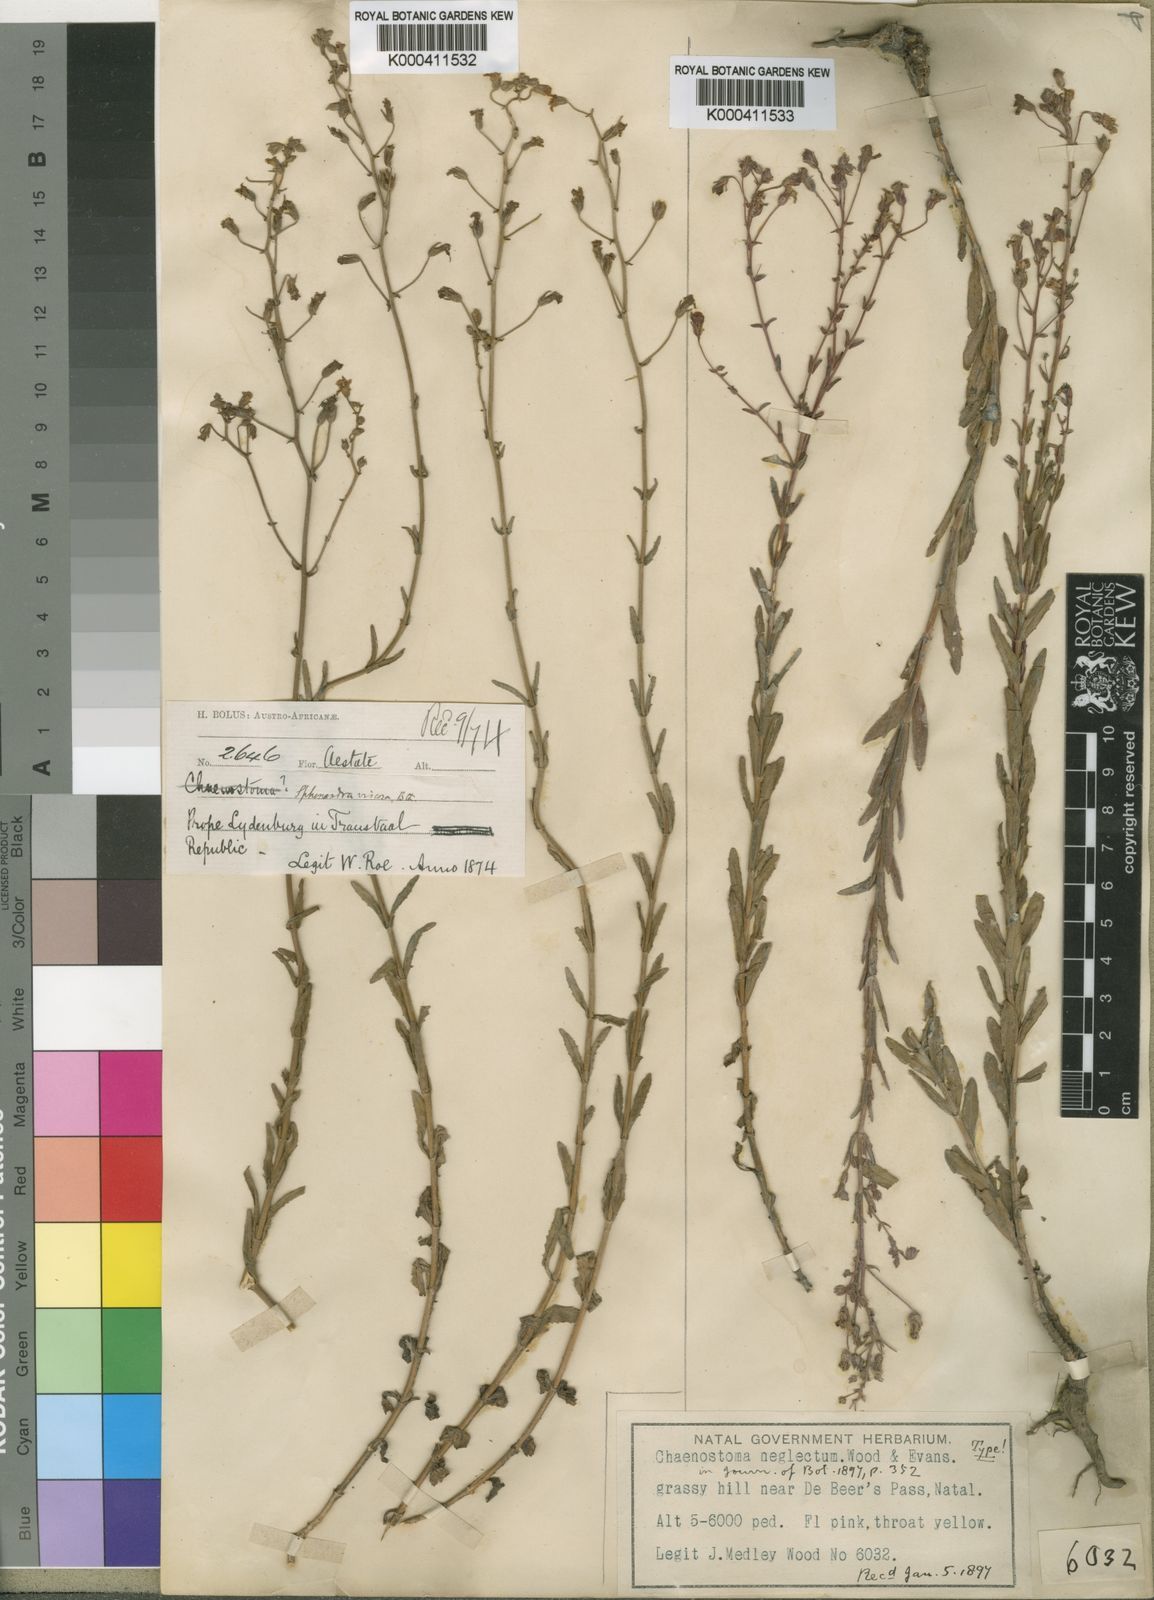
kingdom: Plantae
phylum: Tracheophyta
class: Magnoliopsida
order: Lamiales
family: Scrophulariaceae
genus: Chaenostoma
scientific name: Chaenostoma neglectum
